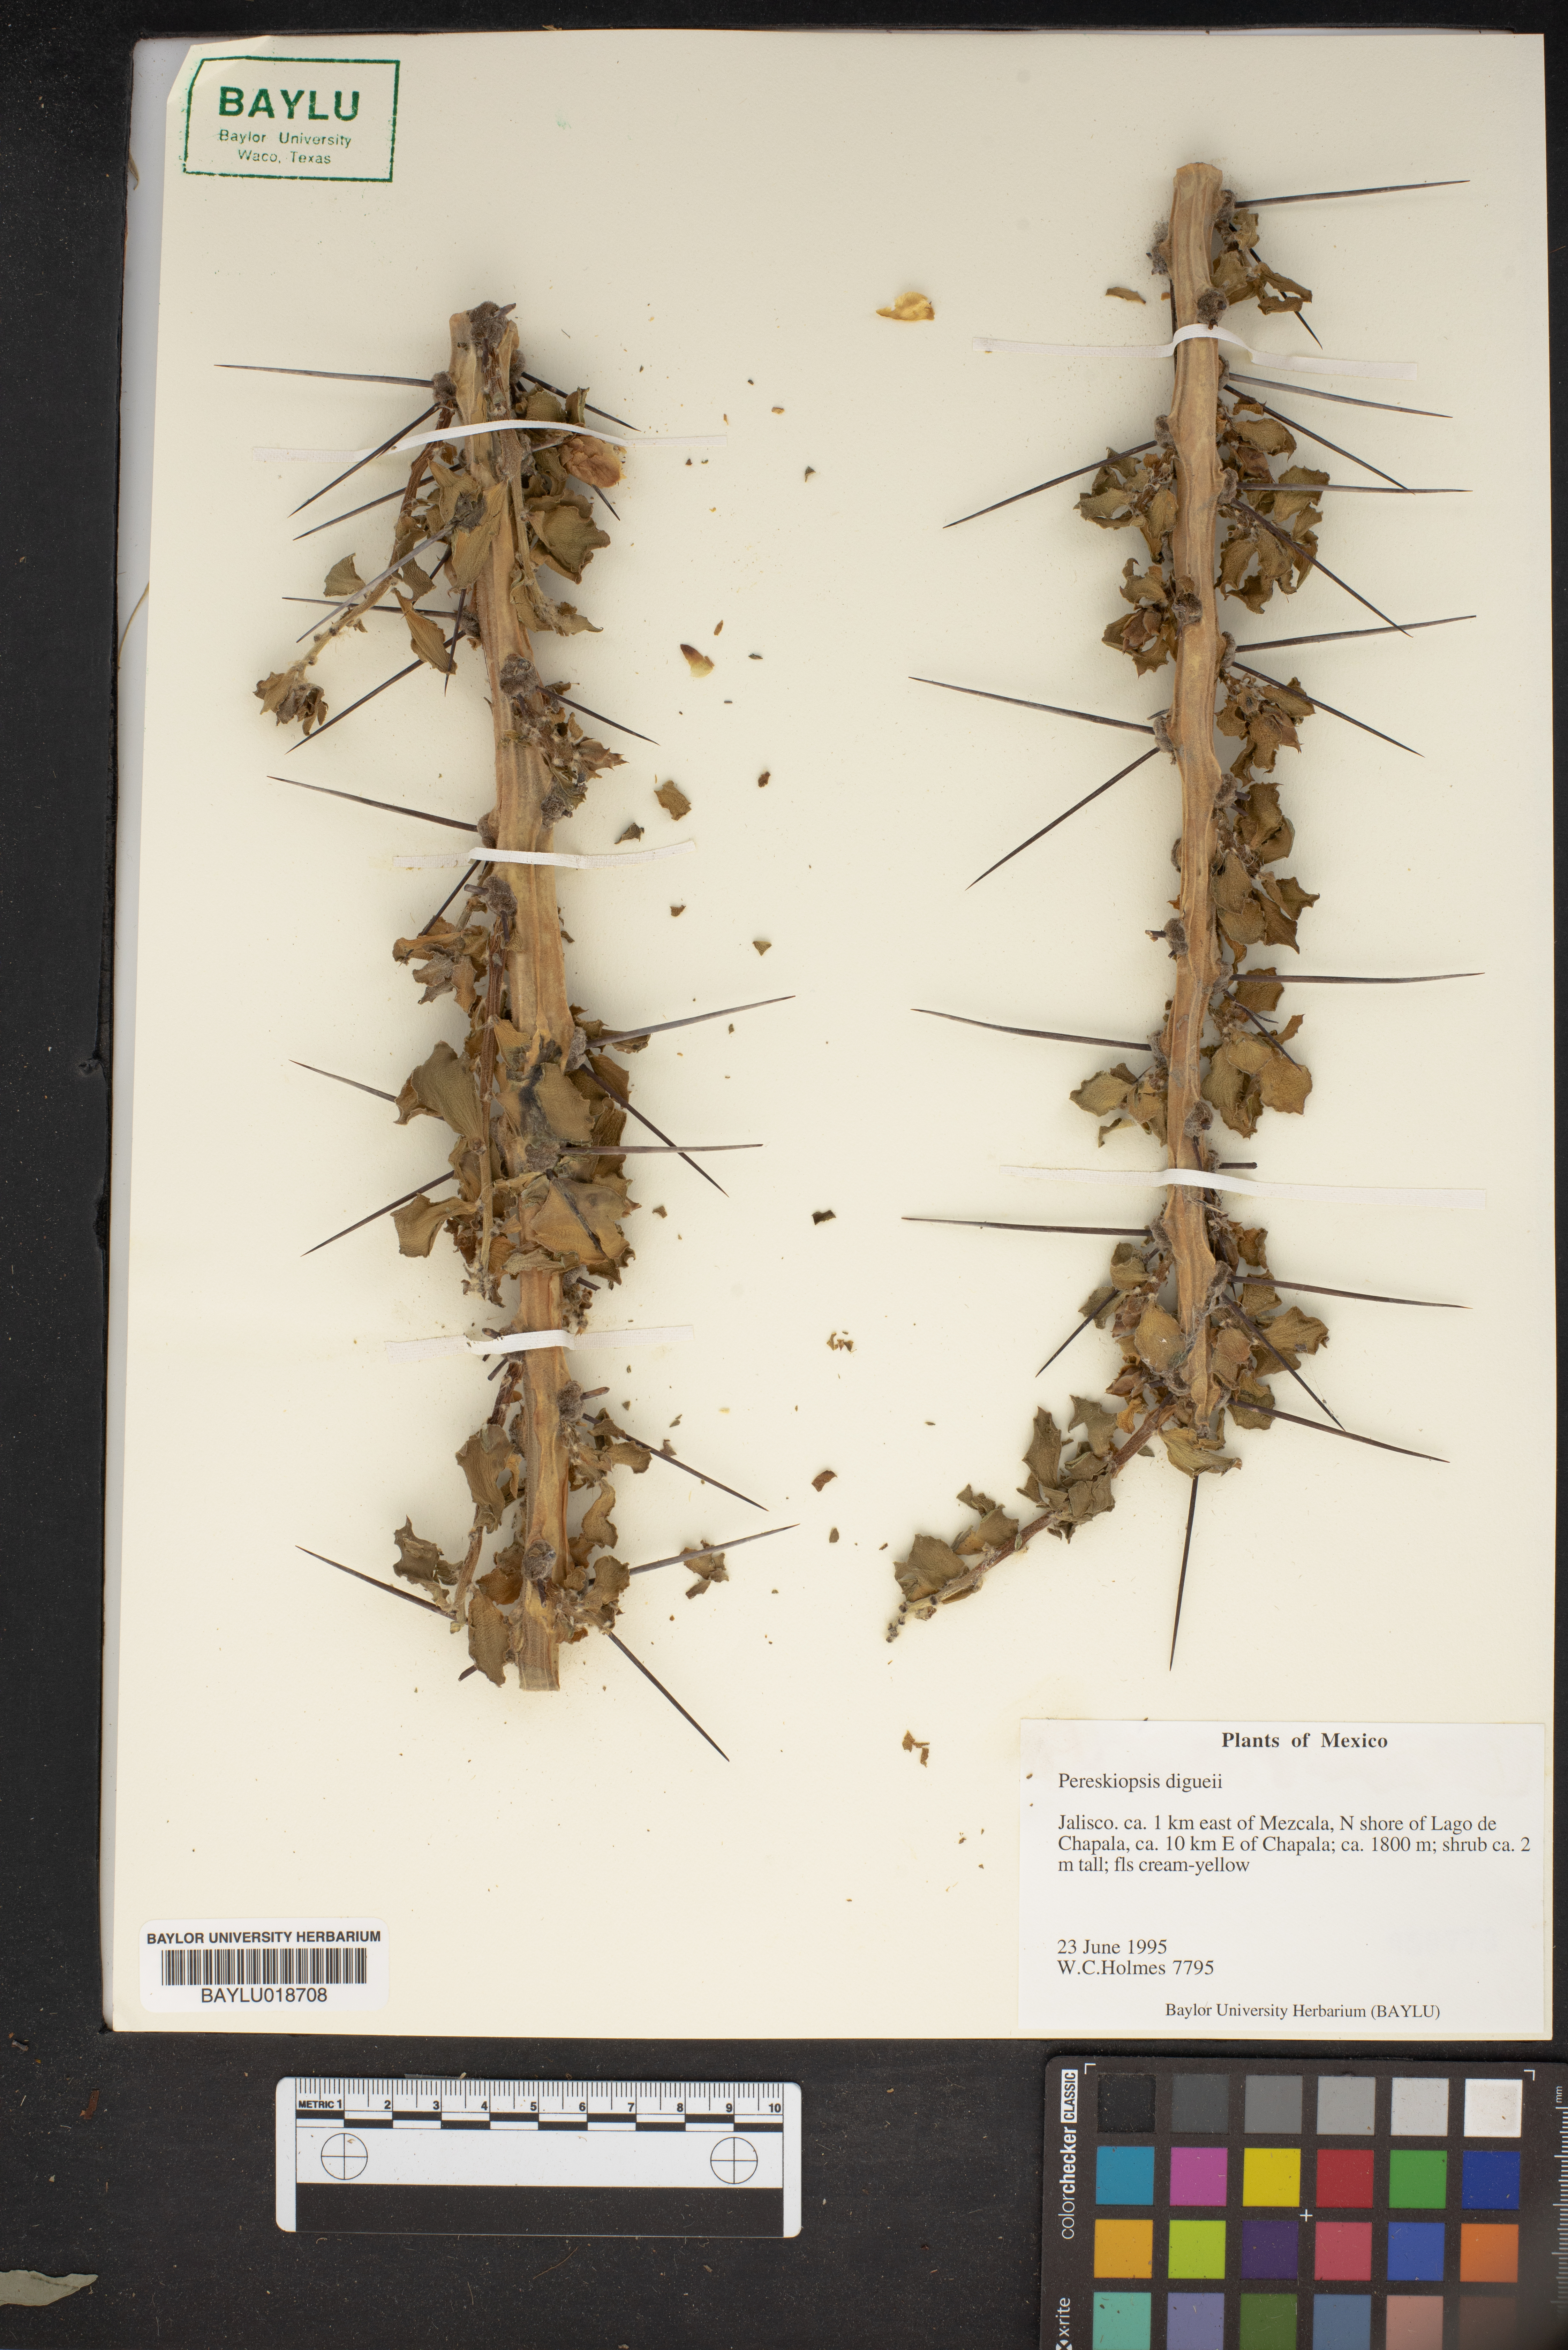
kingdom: Plantae
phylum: Tracheophyta
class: Magnoliopsida
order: Caryophyllales
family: Cactaceae
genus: Pereskiopsis
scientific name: Pereskiopsis diguetii
